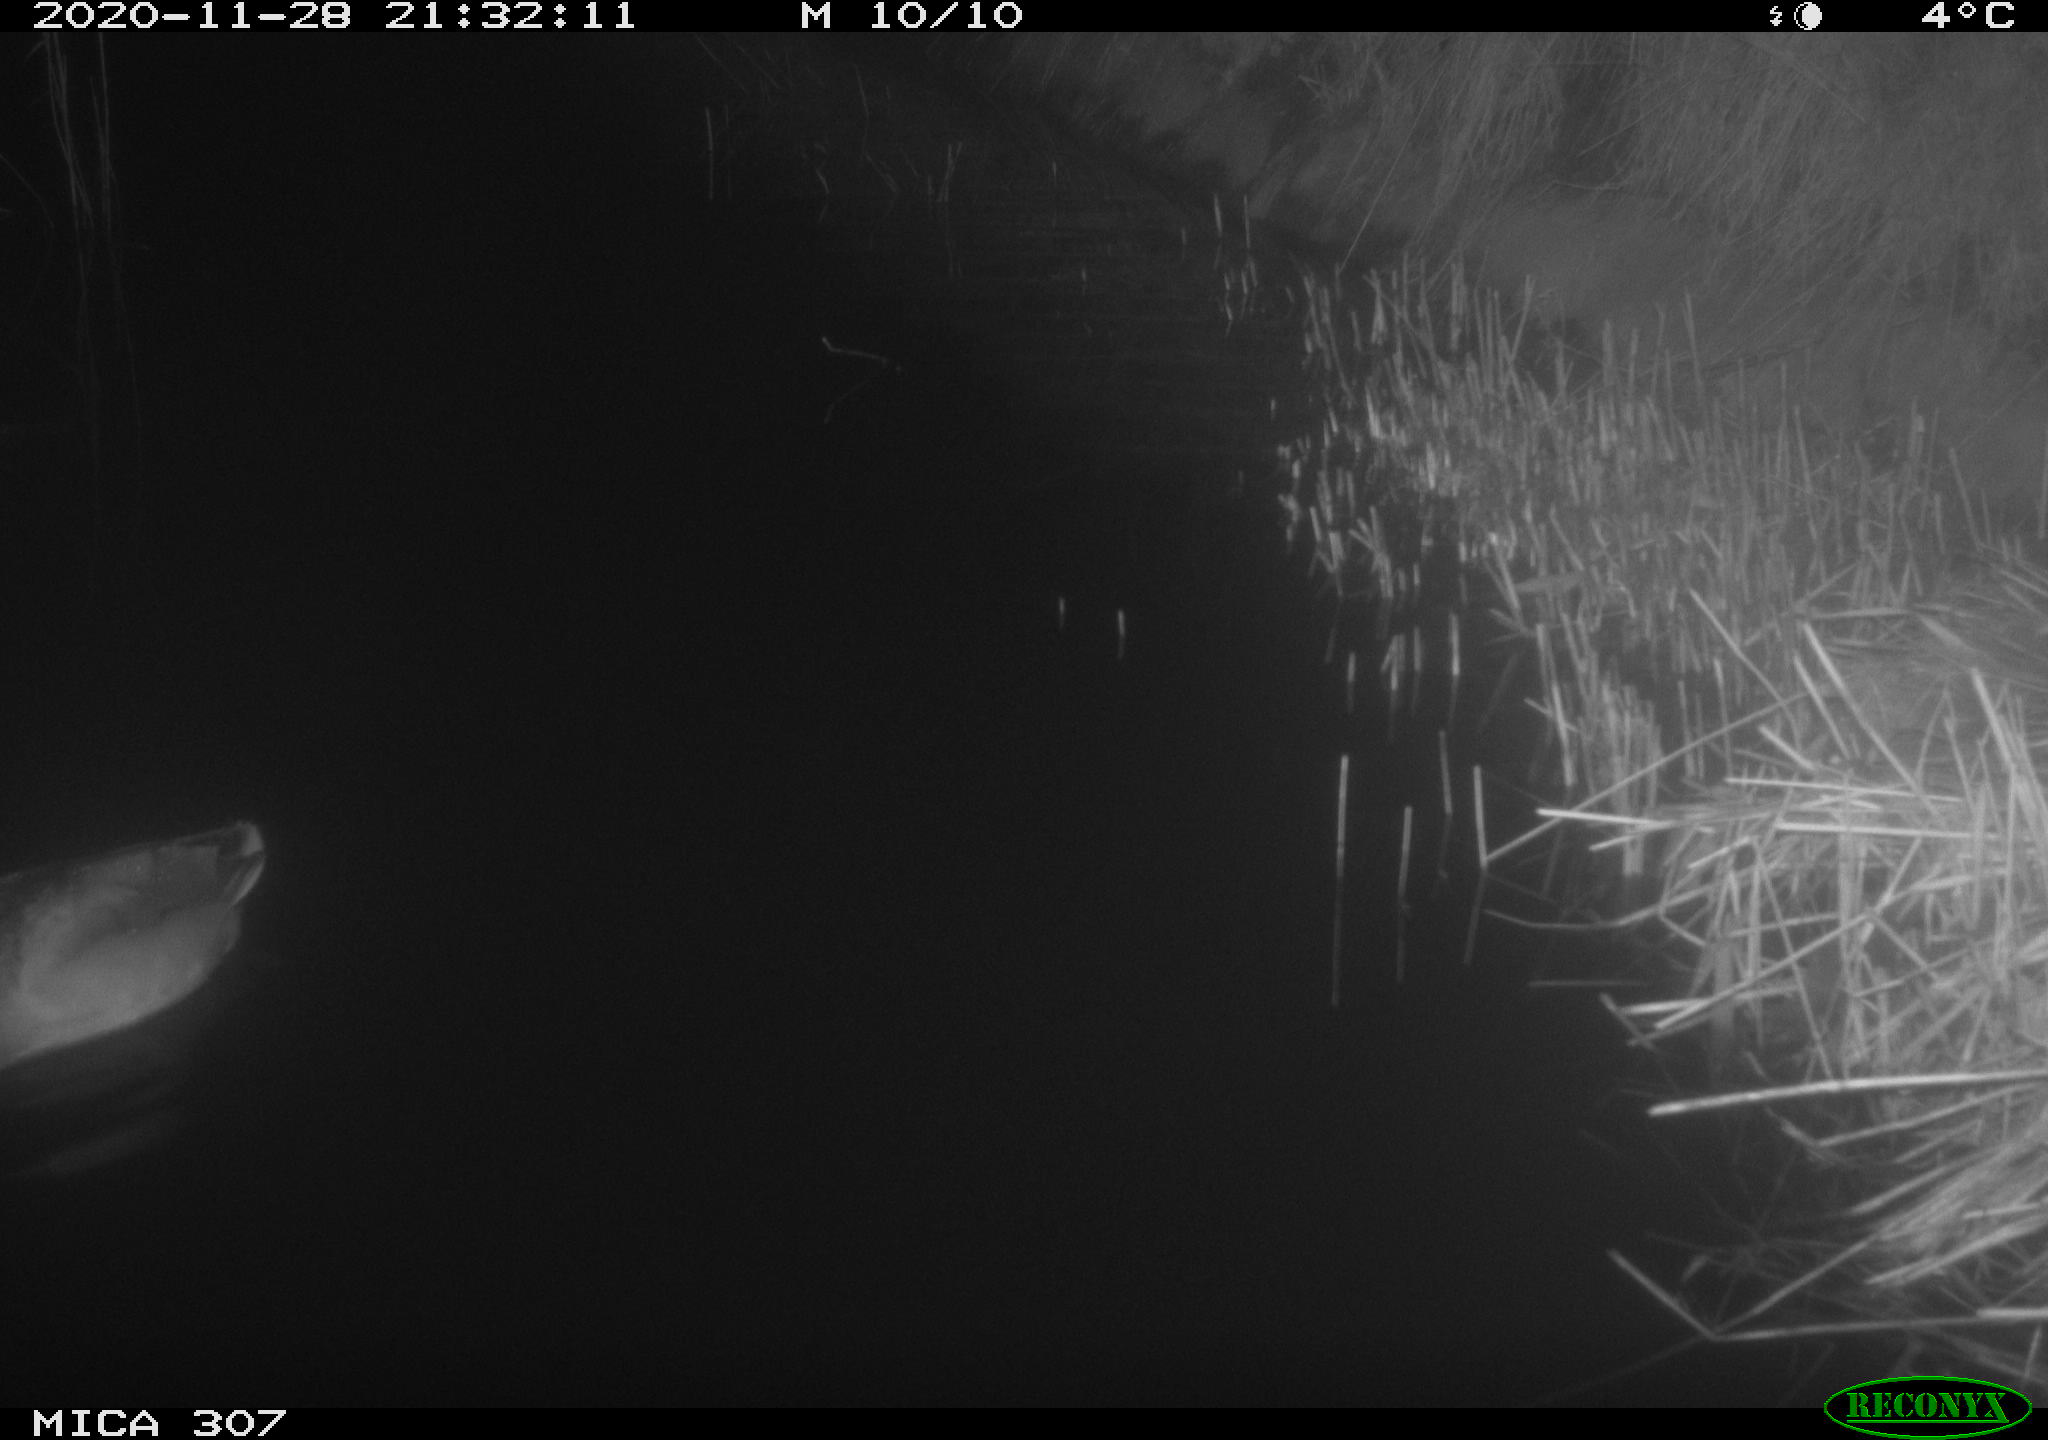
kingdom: Animalia
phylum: Chordata
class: Aves
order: Anseriformes
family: Anatidae
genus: Anas
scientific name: Anas platyrhynchos
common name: Mallard
